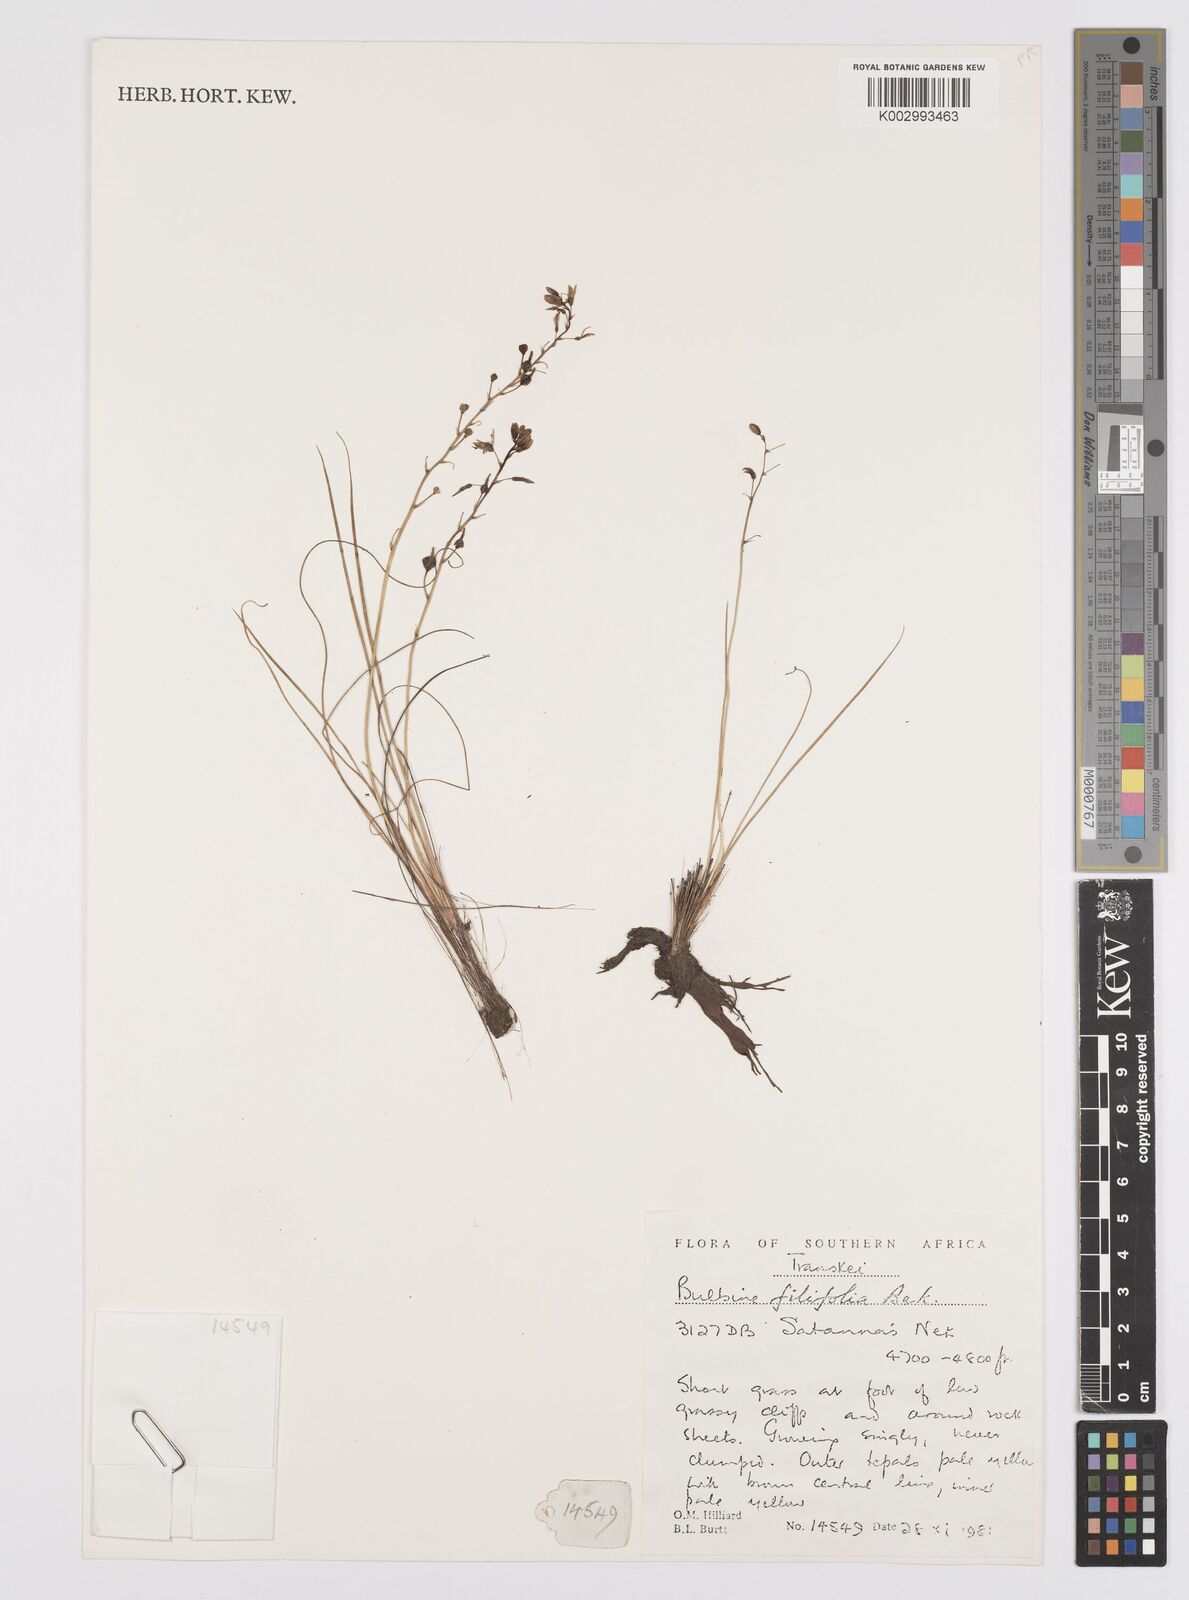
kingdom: Plantae
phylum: Tracheophyta
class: Liliopsida
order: Asparagales
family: Asphodelaceae
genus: Bulbine
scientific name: Bulbine favosa
